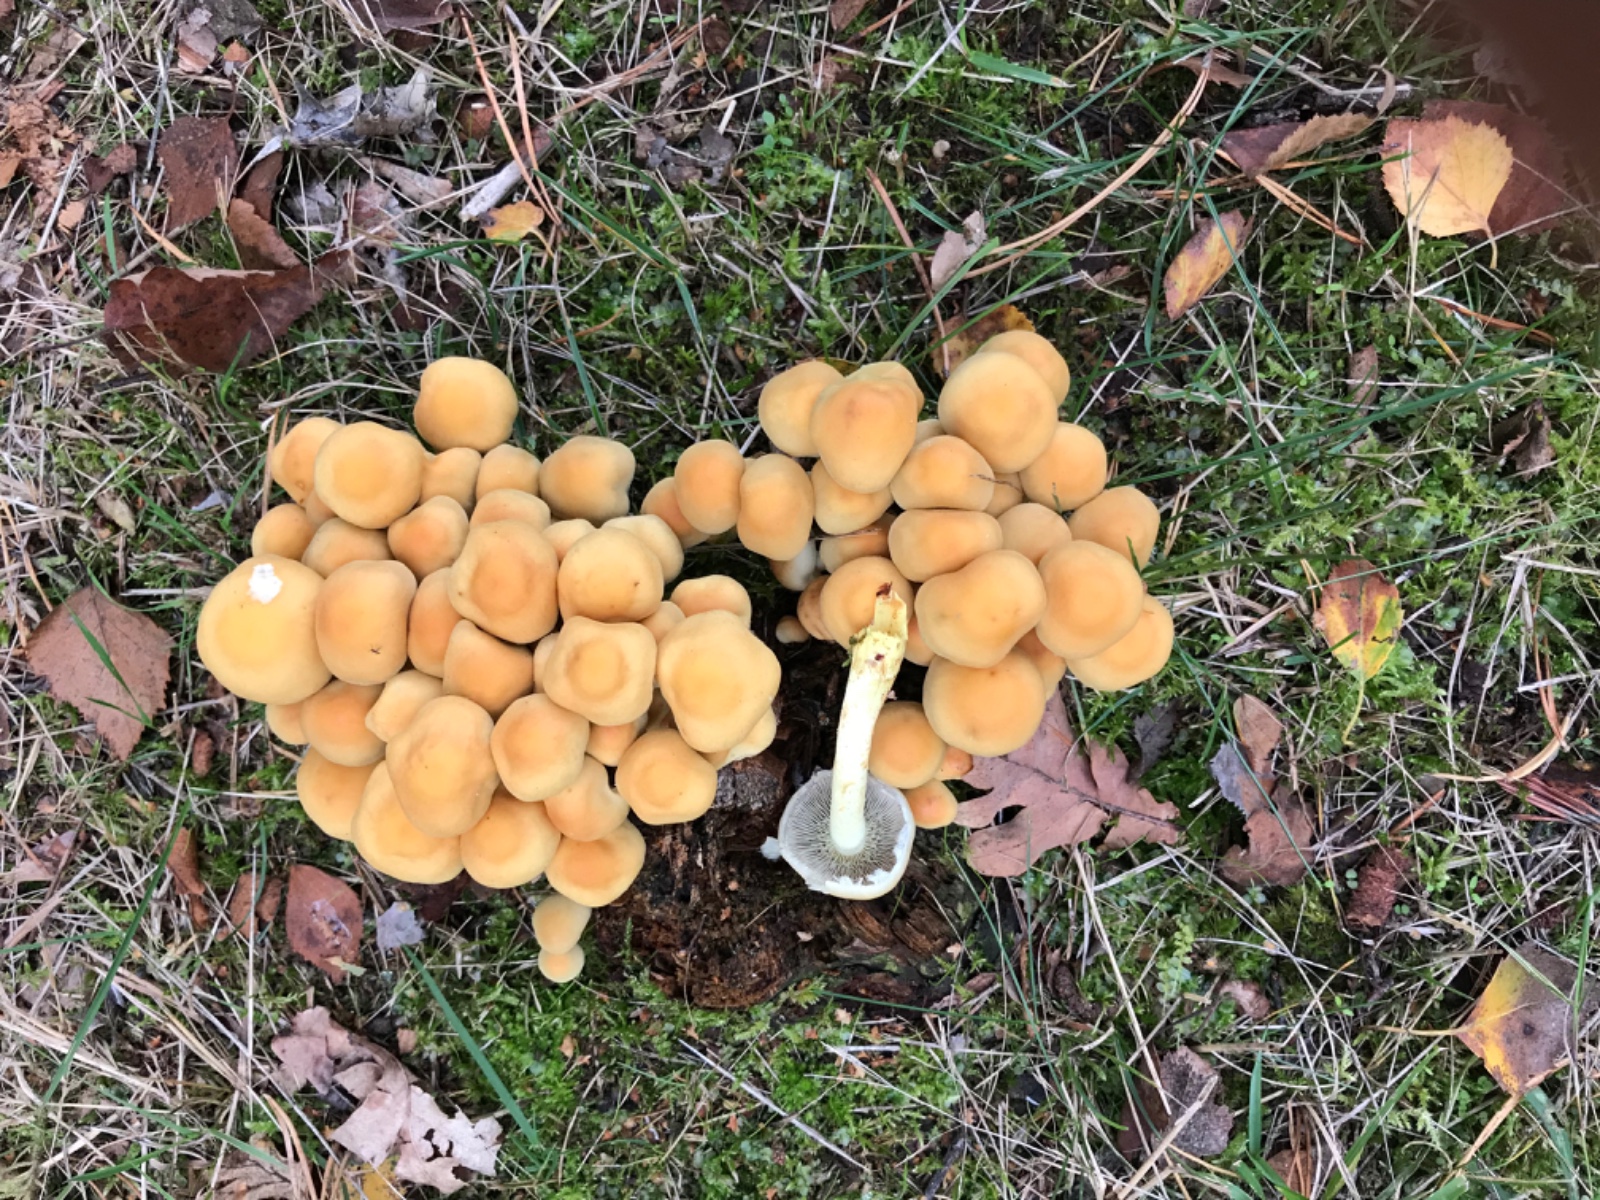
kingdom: Fungi
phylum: Basidiomycota
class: Agaricomycetes
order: Agaricales
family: Strophariaceae
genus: Hypholoma
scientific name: Hypholoma fasciculare
